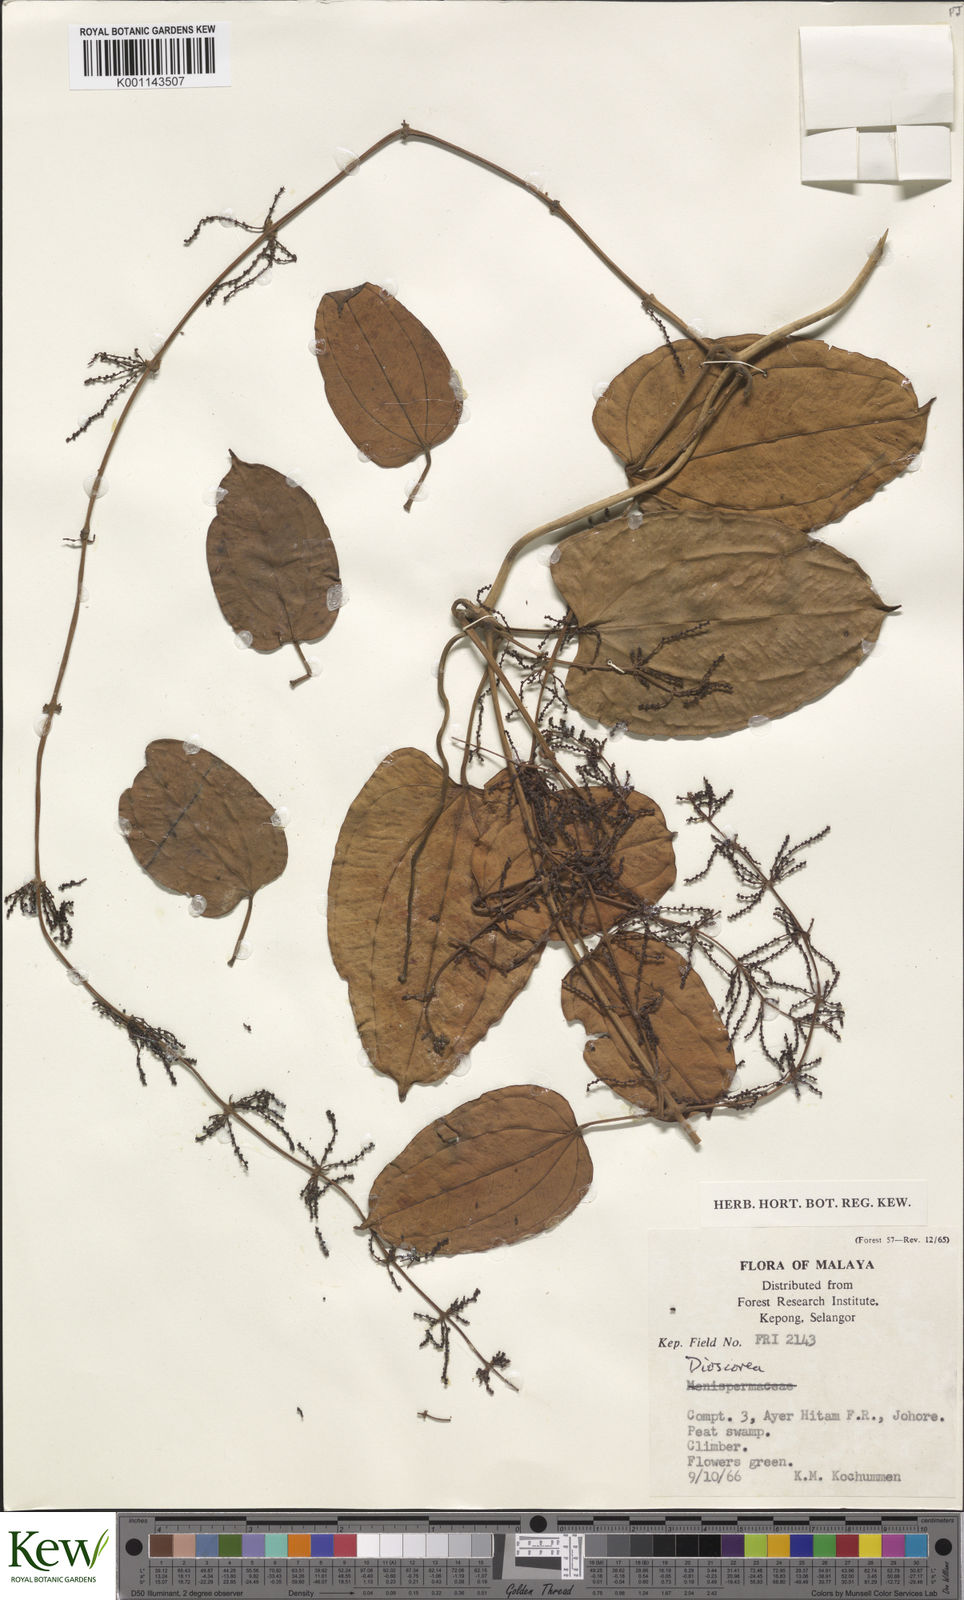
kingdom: Plantae
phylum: Tracheophyta
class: Liliopsida
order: Dioscoreales
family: Dioscoreaceae
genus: Dioscorea
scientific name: Dioscorea
